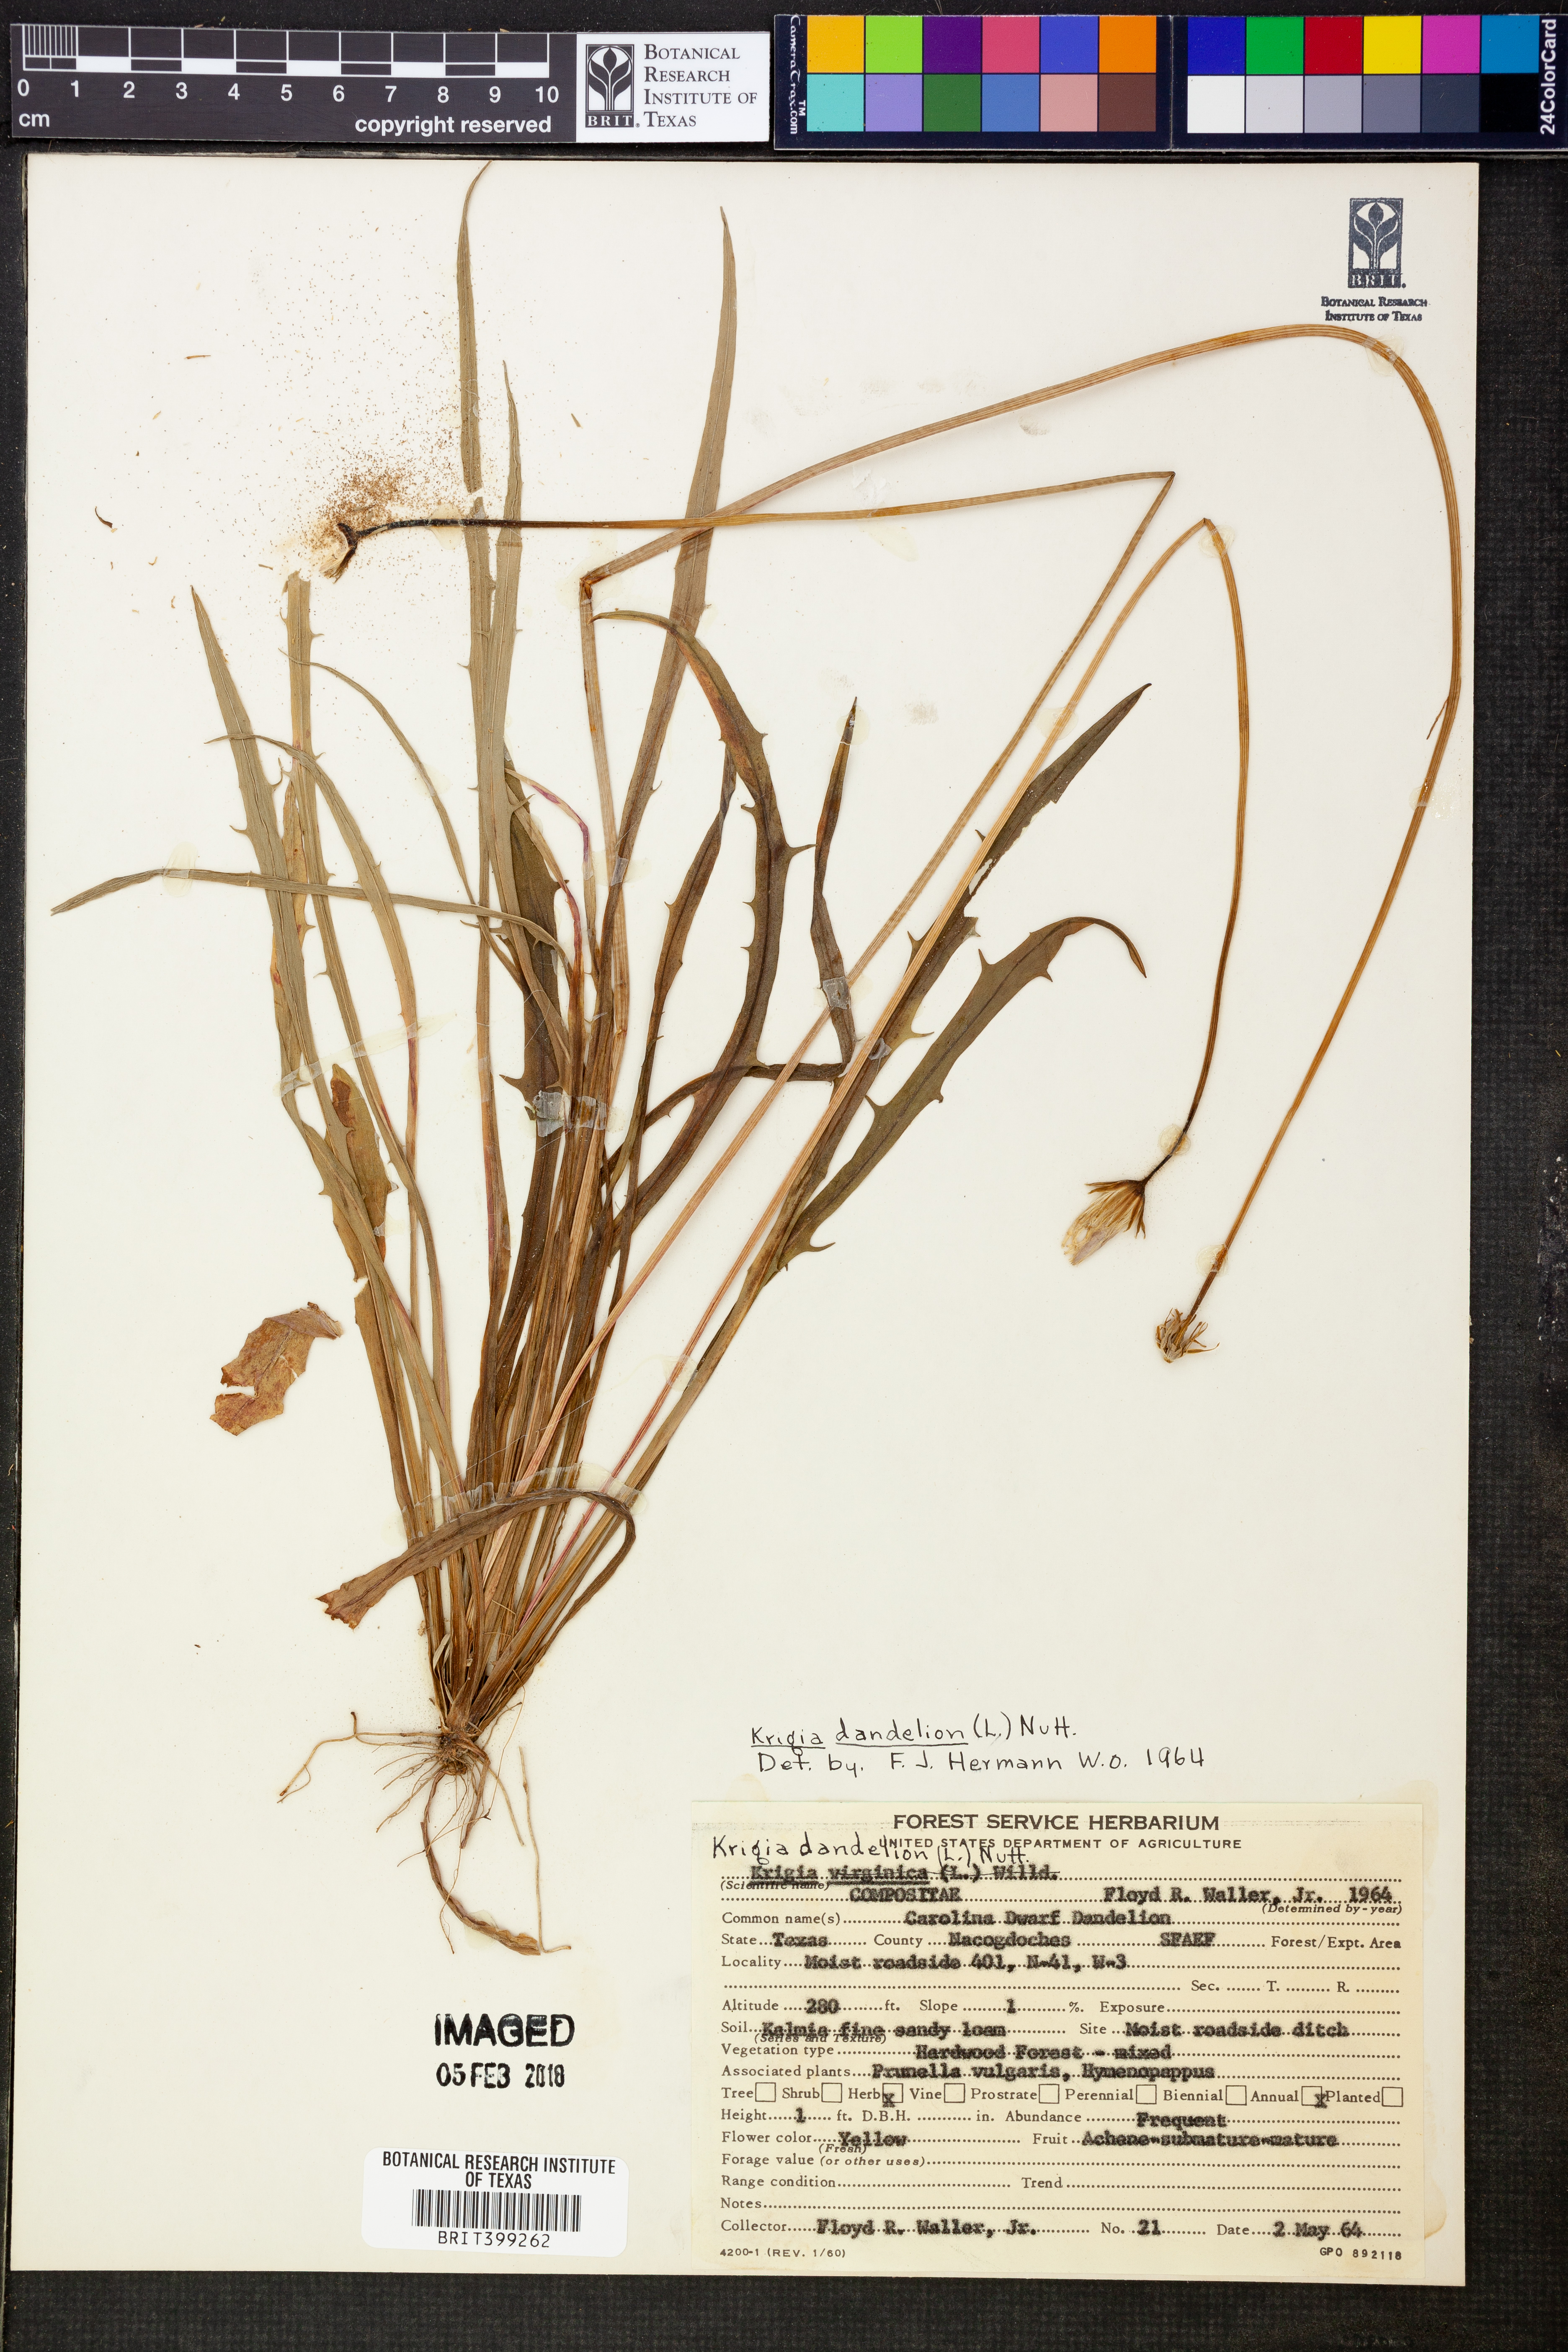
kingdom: Plantae
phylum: Tracheophyta
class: Magnoliopsida
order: Asterales
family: Asteraceae
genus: Krigia
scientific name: Krigia dandelion
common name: Colonial dwarf-dandelion
